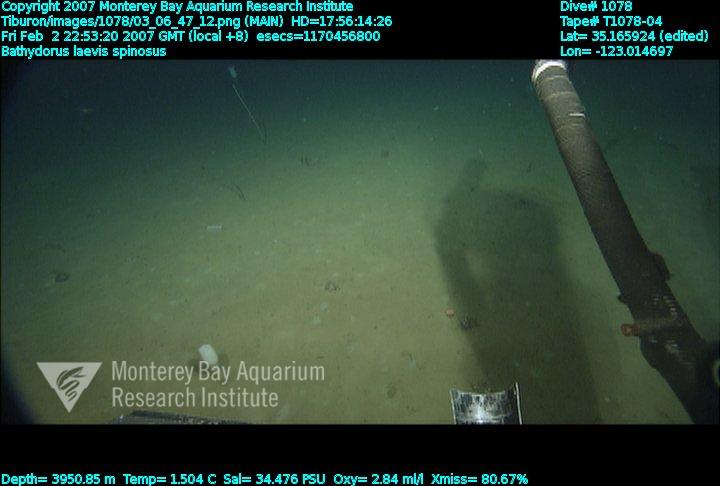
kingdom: Animalia
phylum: Porifera
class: Hexactinellida
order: Lyssacinosida
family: Rossellidae
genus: Bathydorus
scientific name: Bathydorus spinosus
